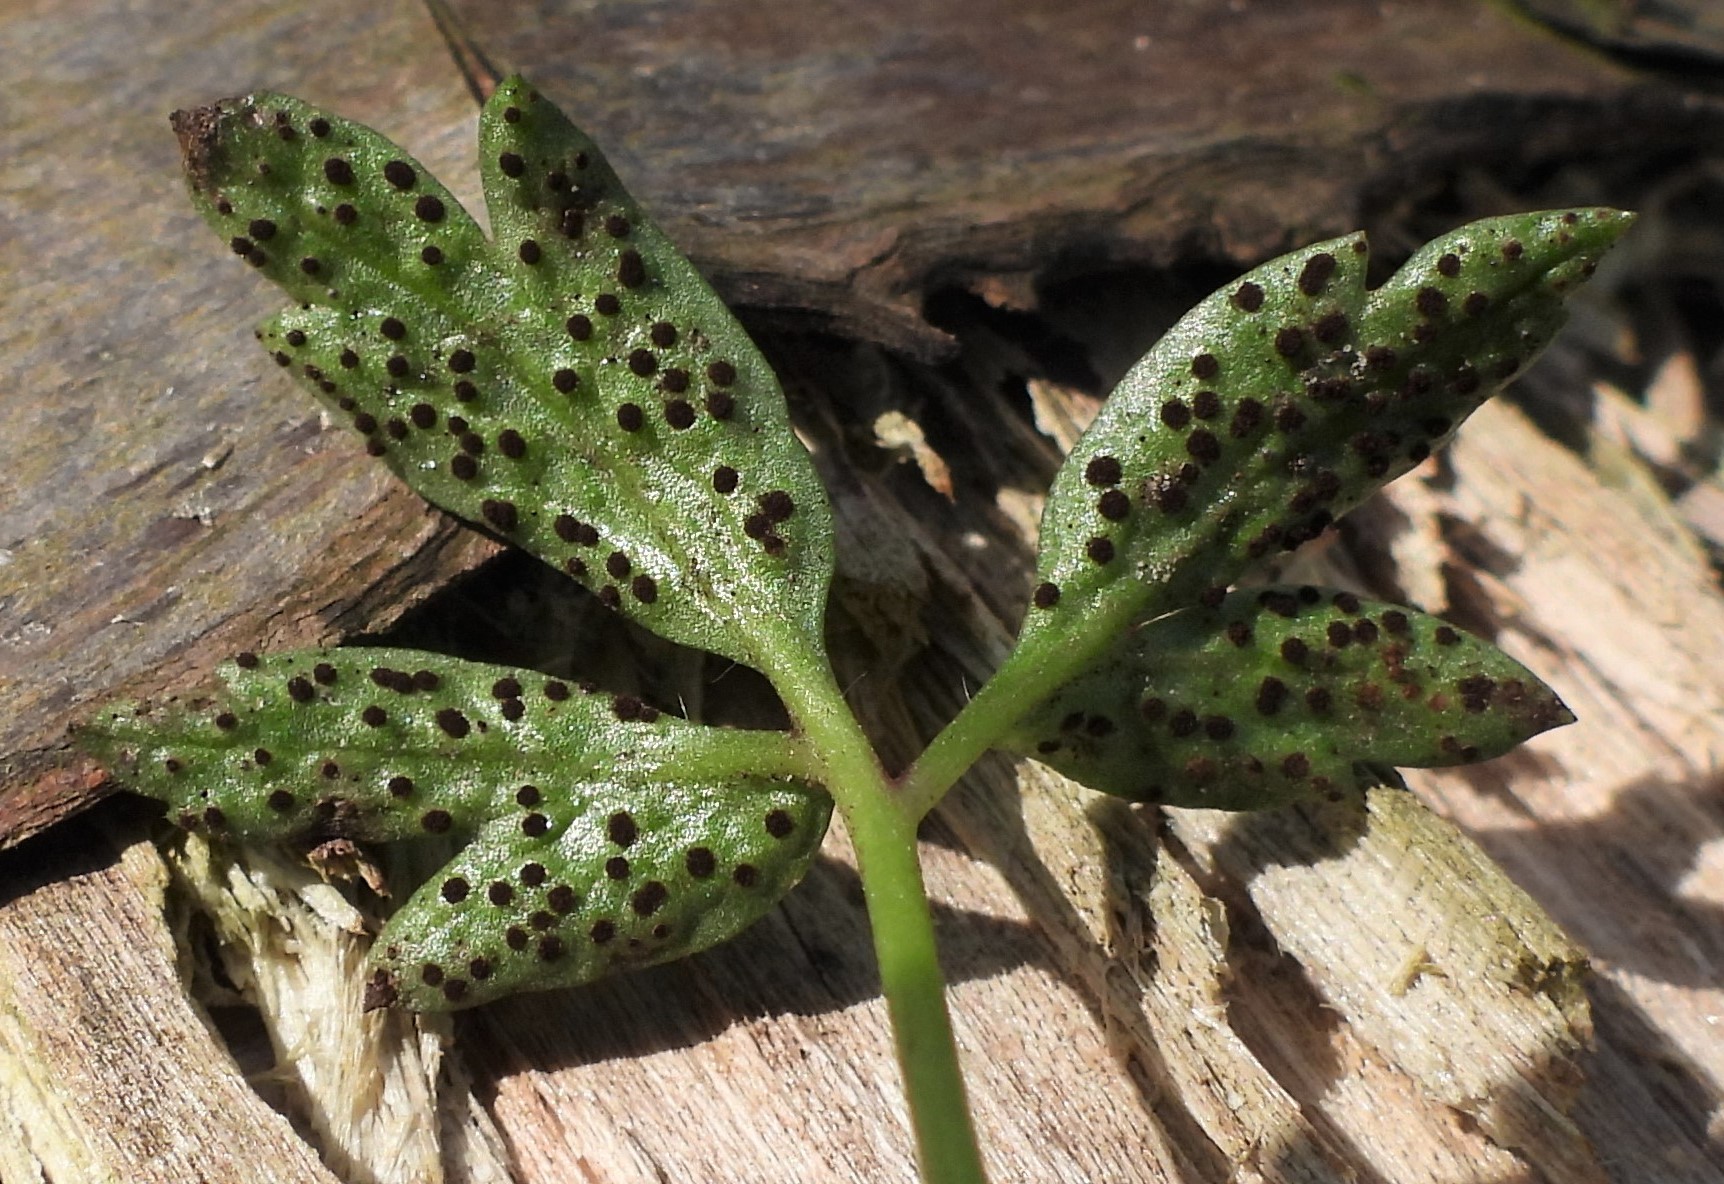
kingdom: Fungi
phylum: Basidiomycota
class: Pucciniomycetes
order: Pucciniales
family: Tranzscheliaceae
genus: Tranzschelia
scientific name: Tranzschelia anemones
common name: anemone-knæksporerust
